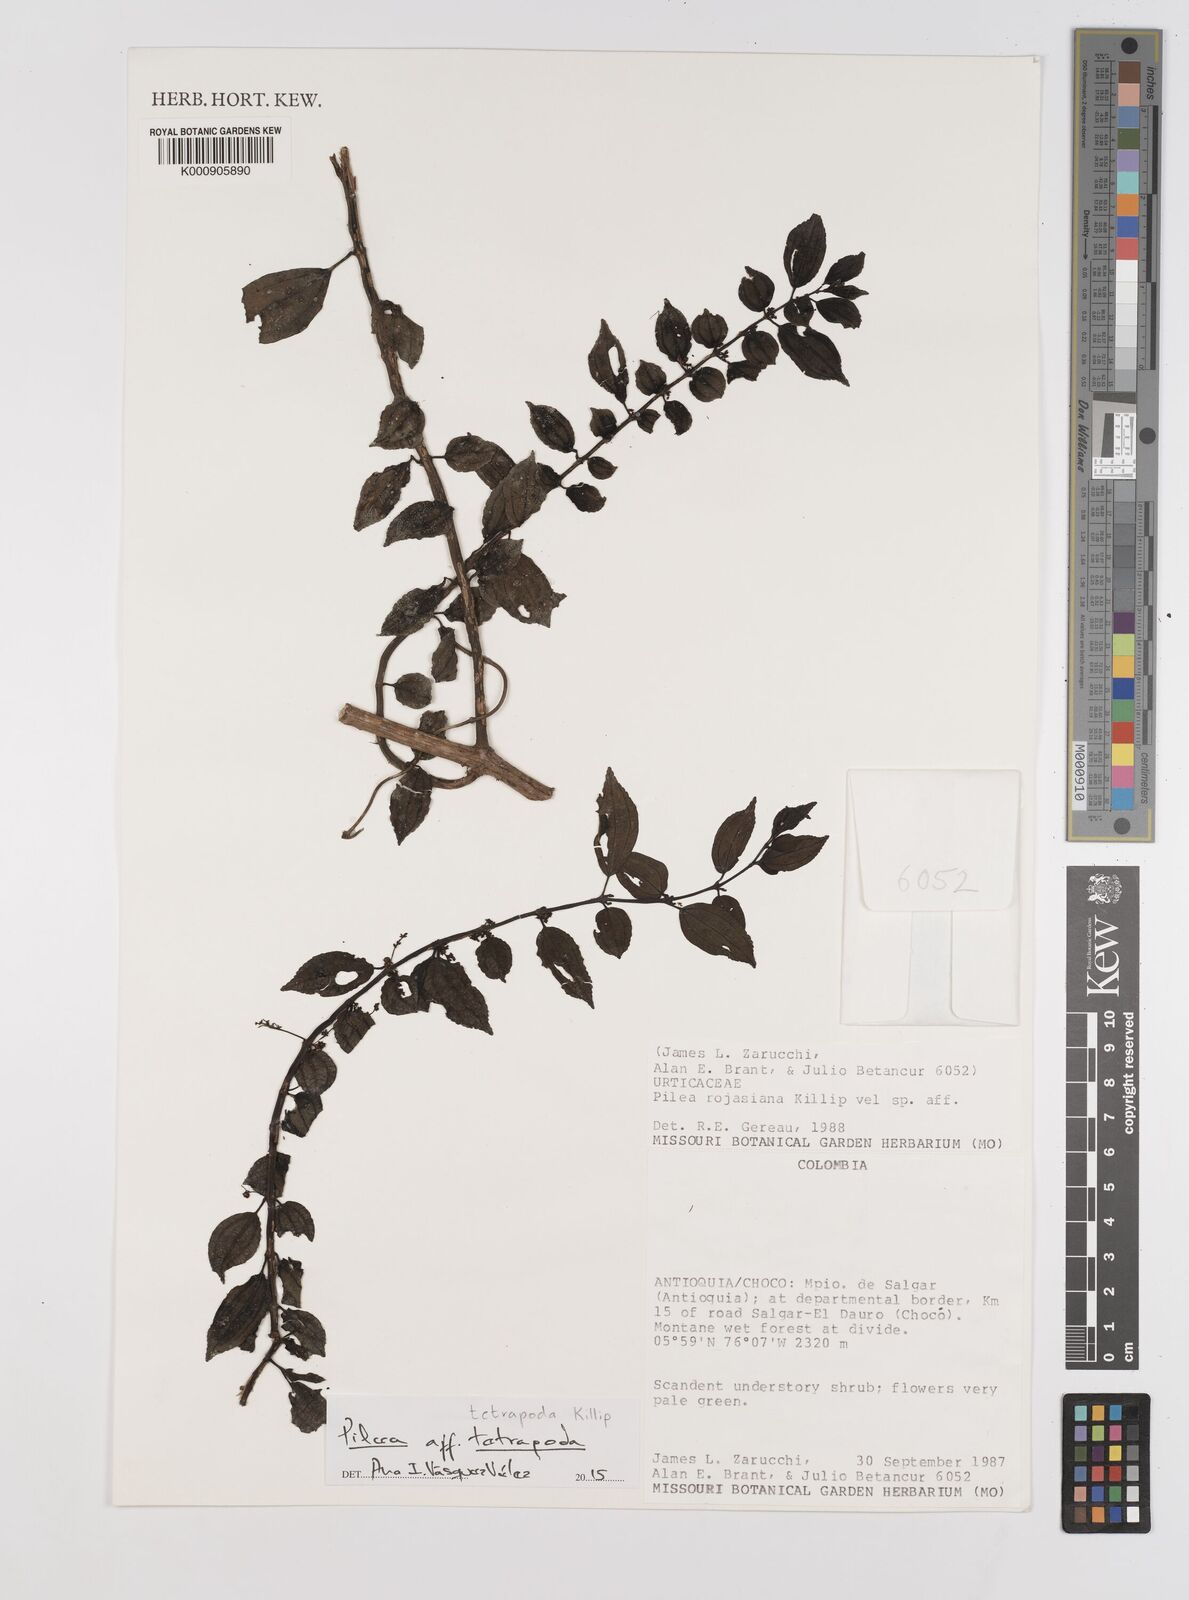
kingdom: Plantae
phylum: Tracheophyta
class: Magnoliopsida
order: Rosales
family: Urticaceae
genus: Pilea
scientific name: Pilea tetrapoda
